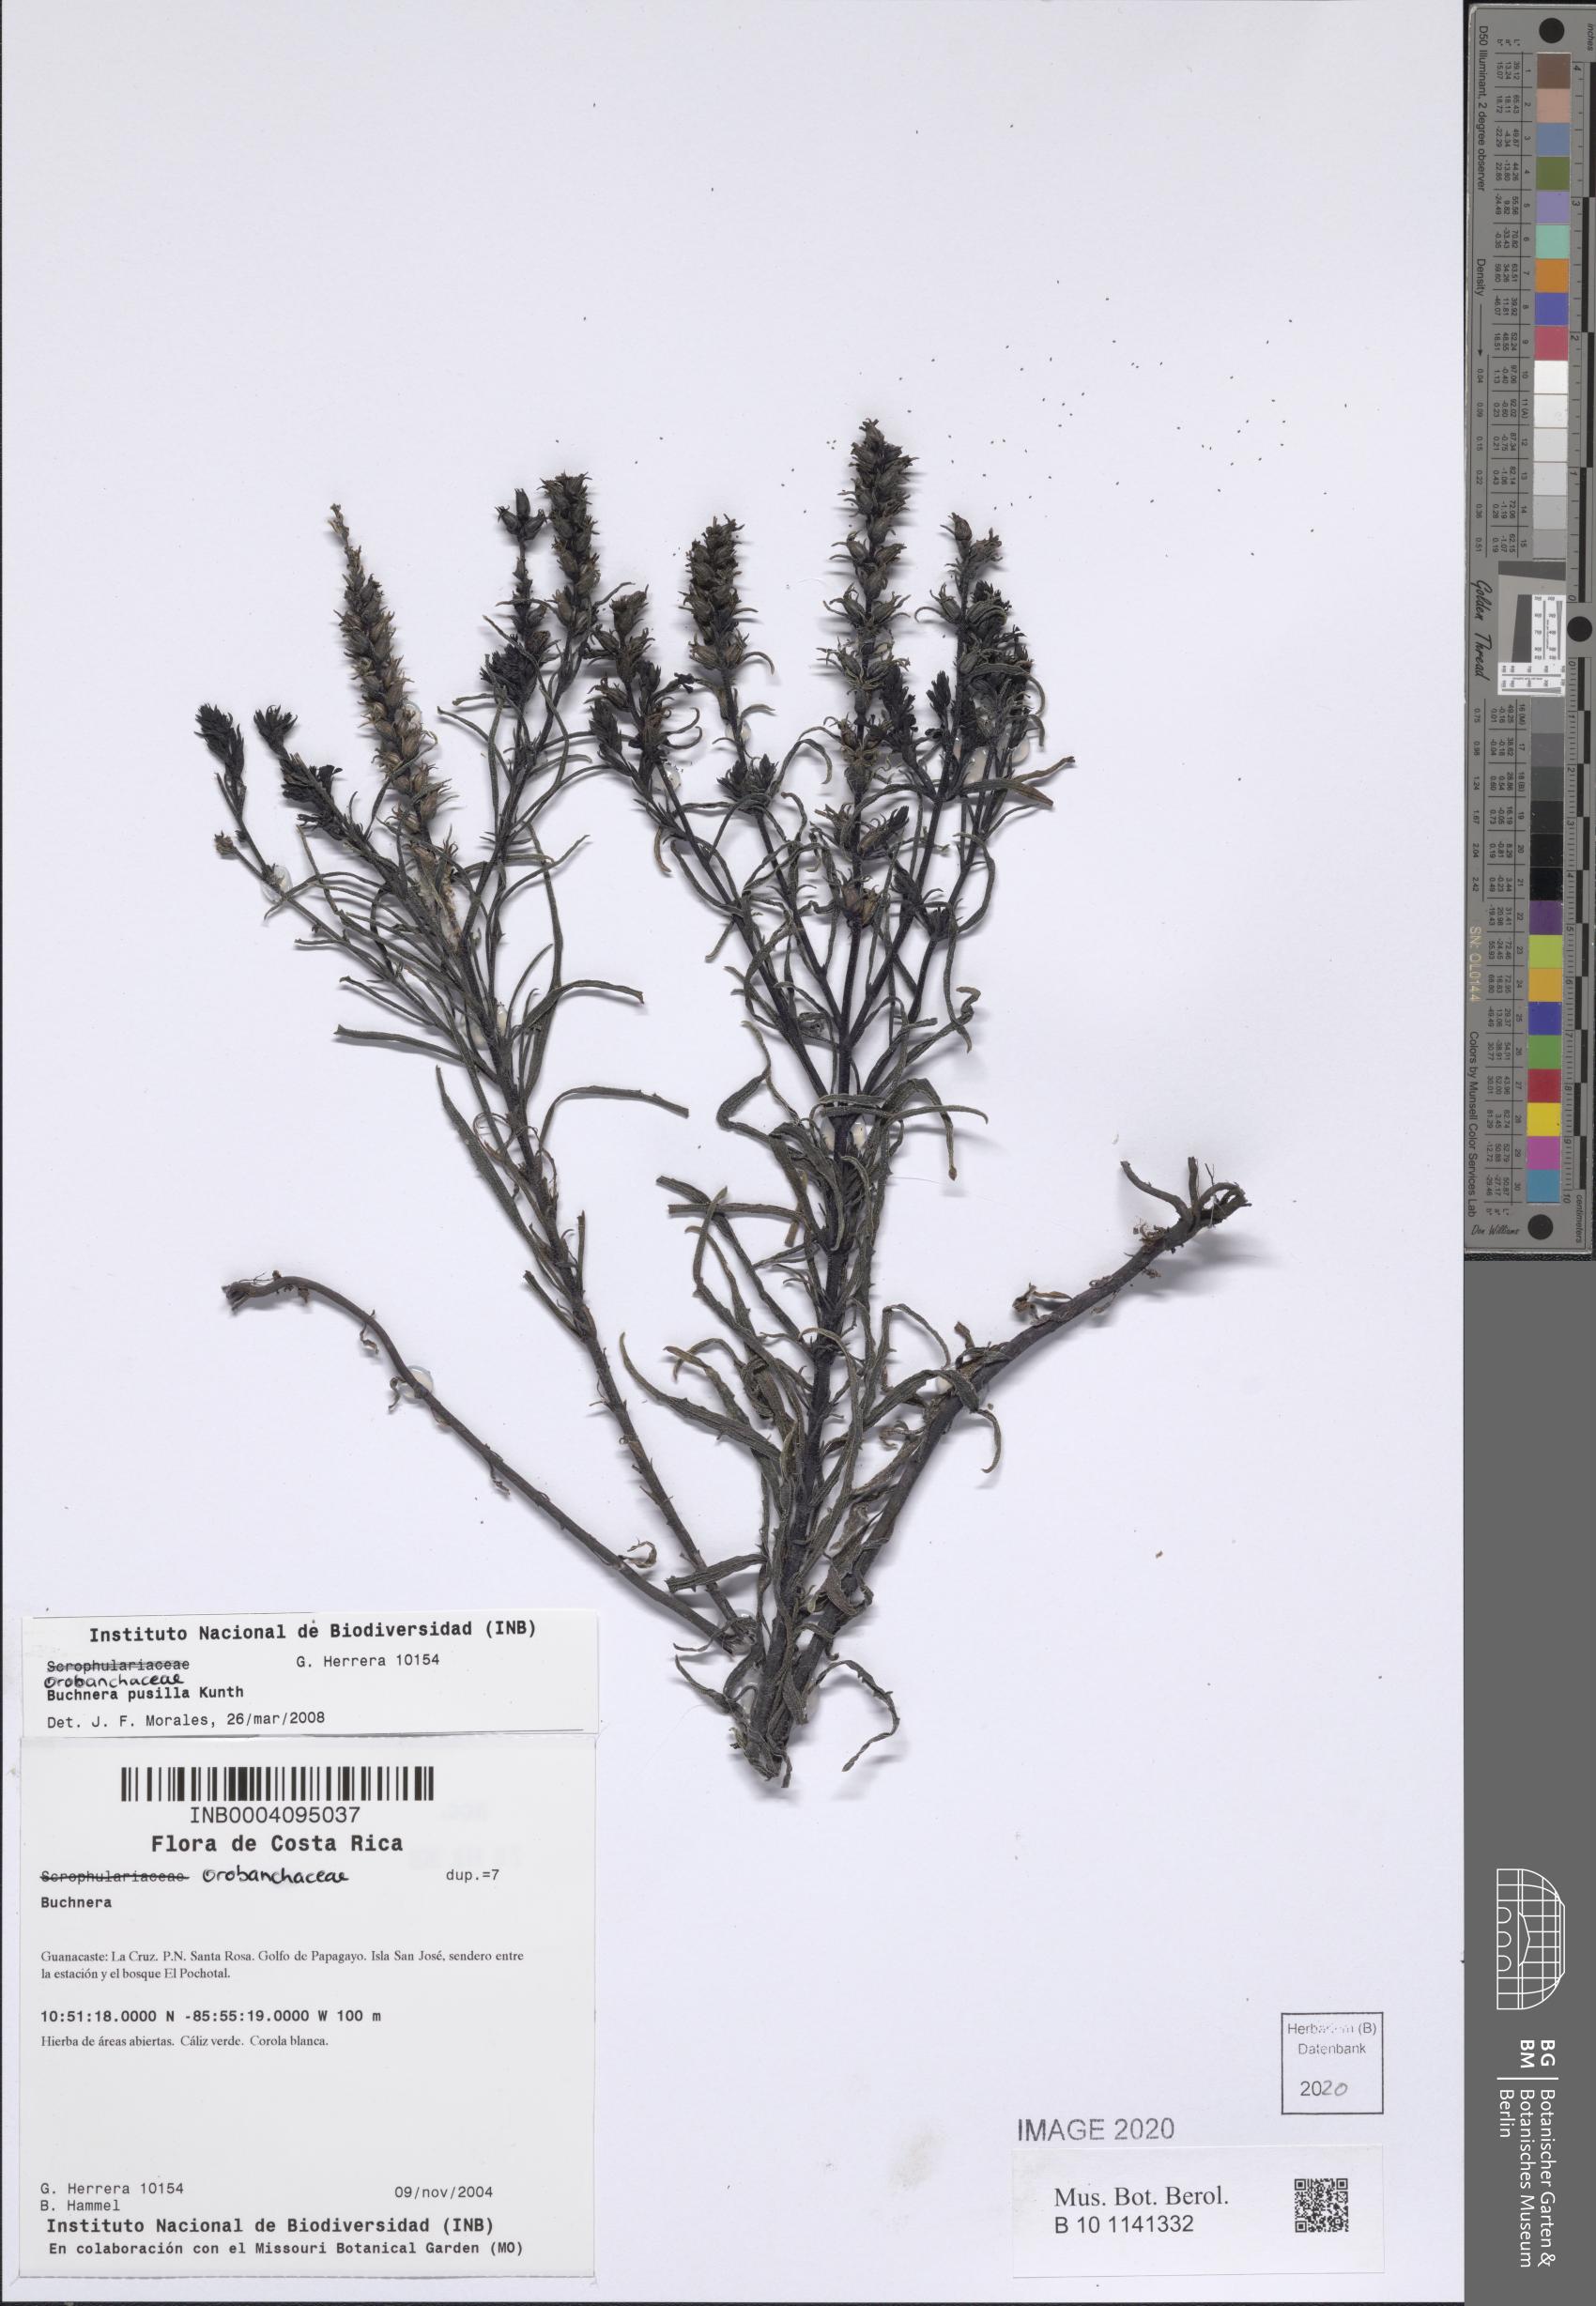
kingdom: Plantae
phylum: Tracheophyta
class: Magnoliopsida
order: Lamiales
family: Orobanchaceae
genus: Buchnera
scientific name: Buchnera pusilla
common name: Pygmy bluehearts
